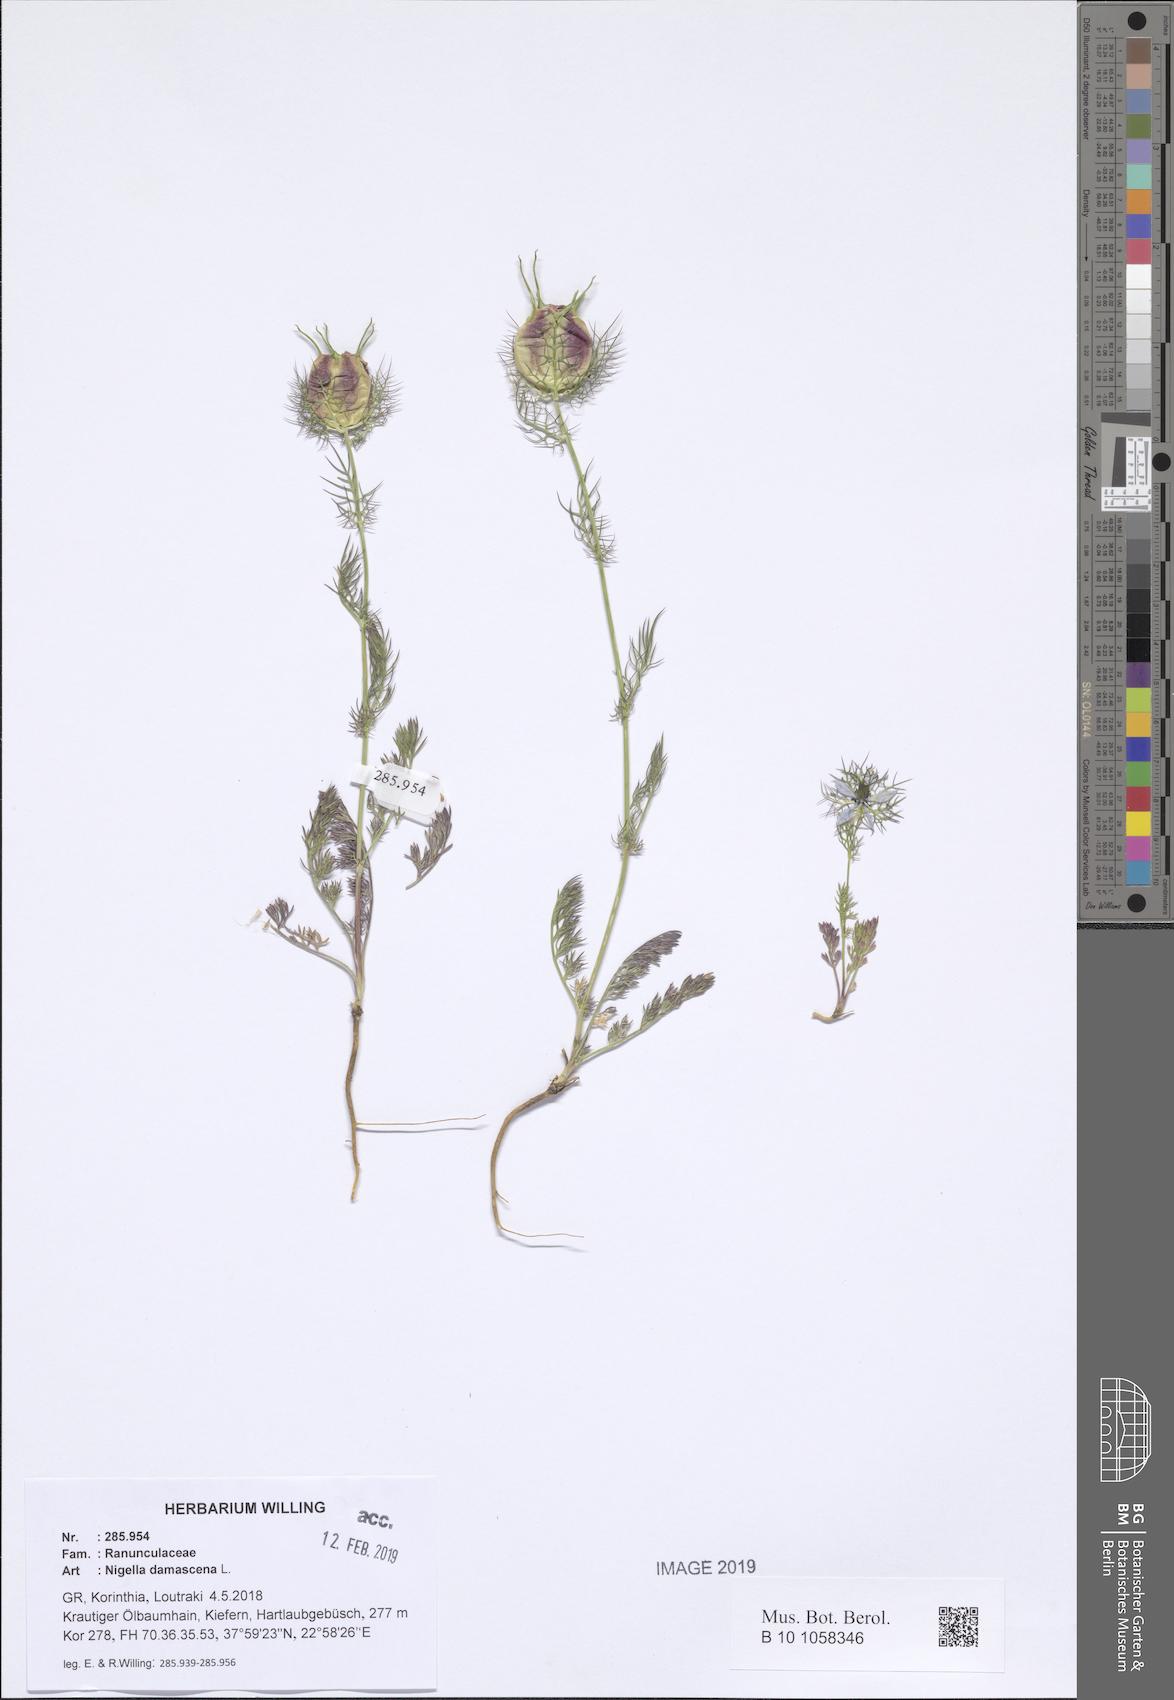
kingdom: Plantae
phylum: Tracheophyta
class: Magnoliopsida
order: Ranunculales
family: Ranunculaceae
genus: Nigella
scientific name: Nigella damascena
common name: Love-in-a-mist
